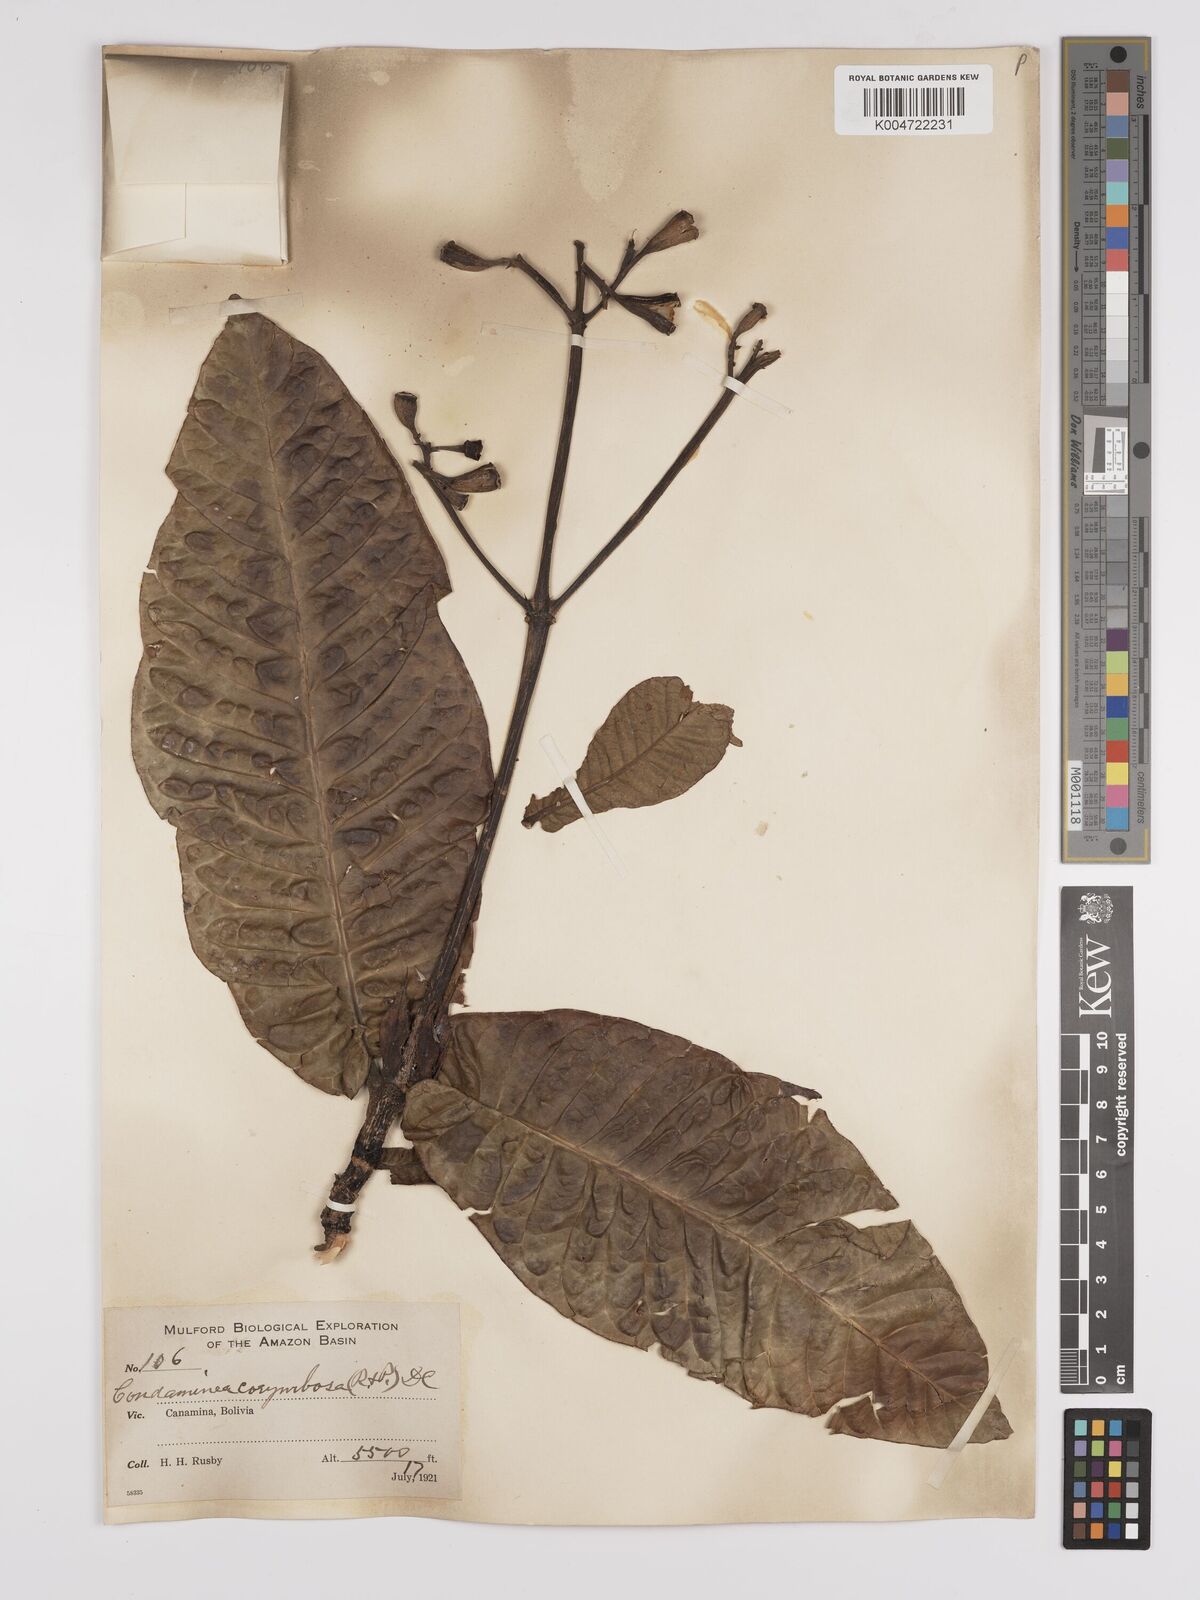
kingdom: Plantae
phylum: Tracheophyta
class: Magnoliopsida
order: Gentianales
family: Rubiaceae
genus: Condaminea
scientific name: Condaminea corymbosa
